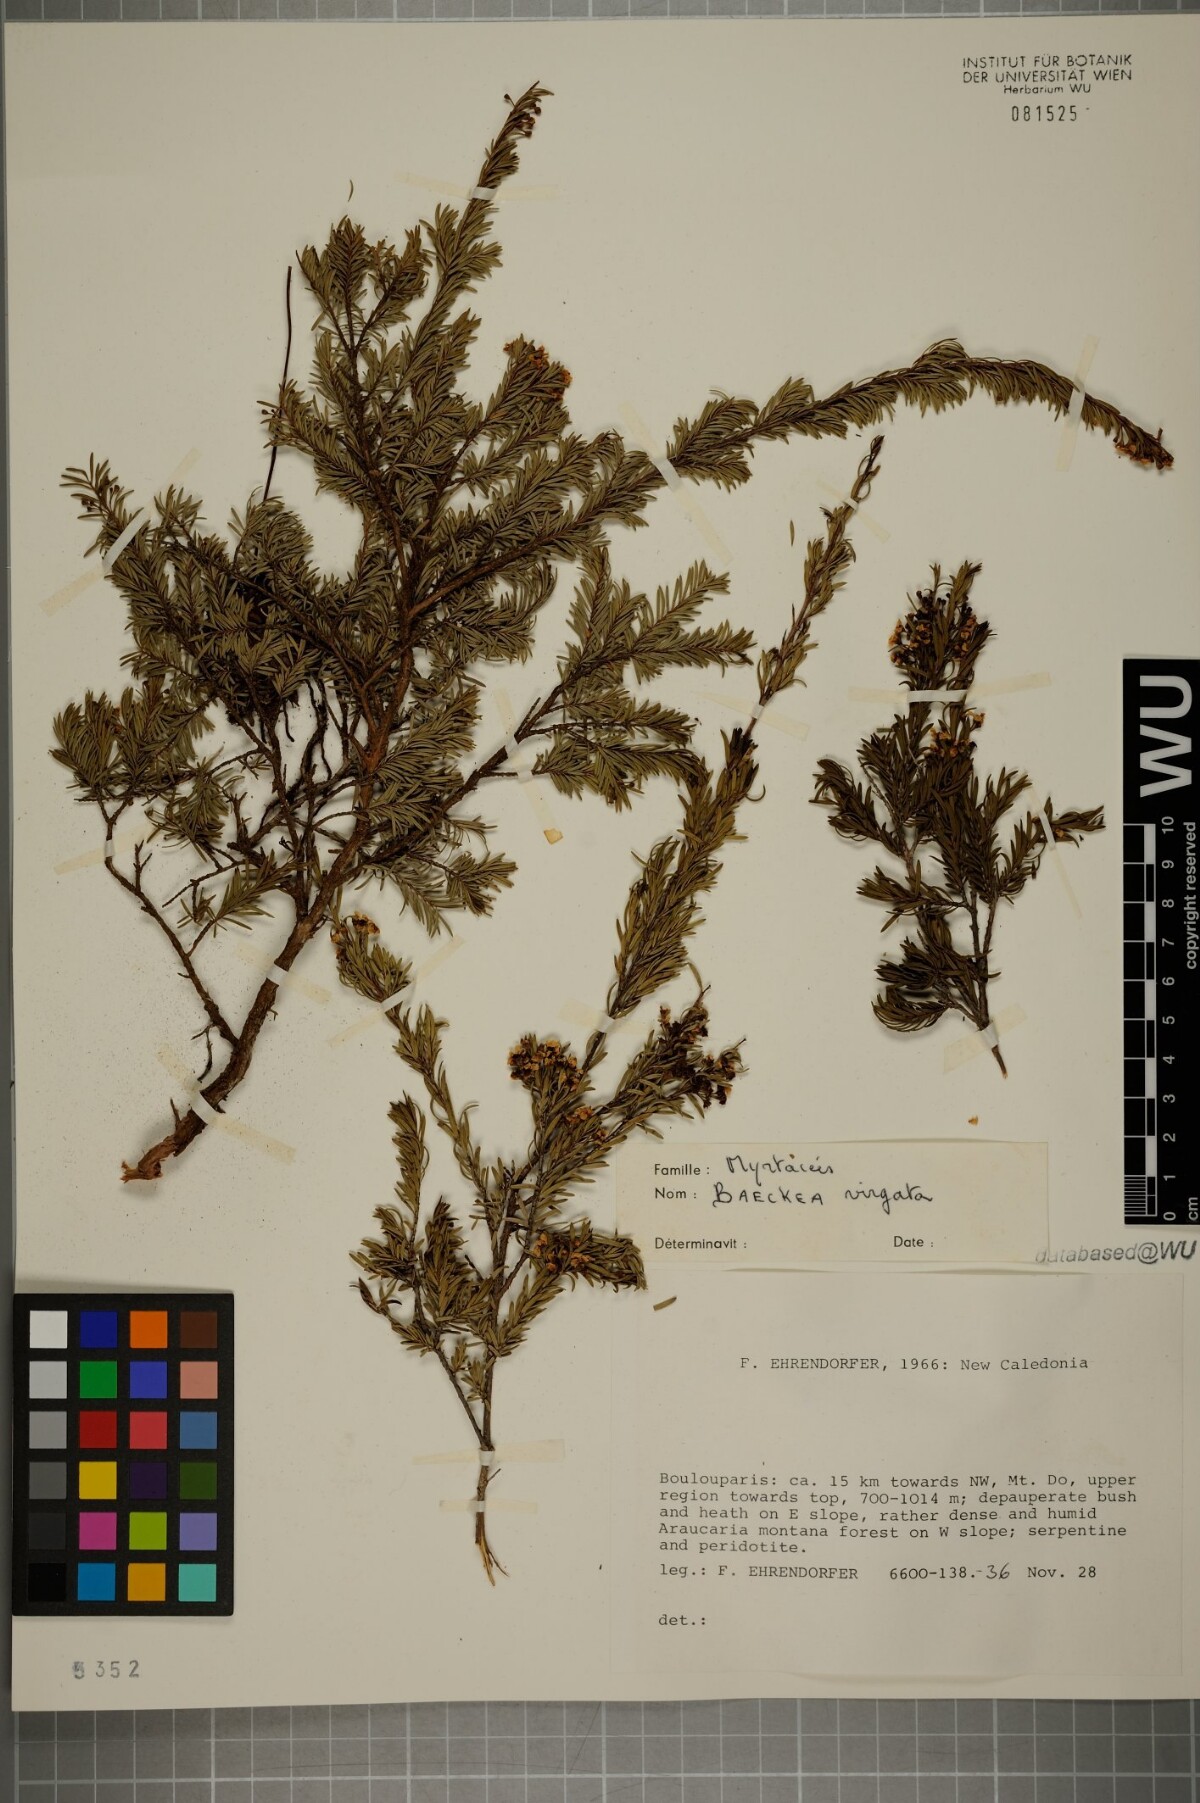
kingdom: Plantae
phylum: Tracheophyta
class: Magnoliopsida
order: Myrtales
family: Myrtaceae
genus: Sannantha
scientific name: Sannantha virgata
